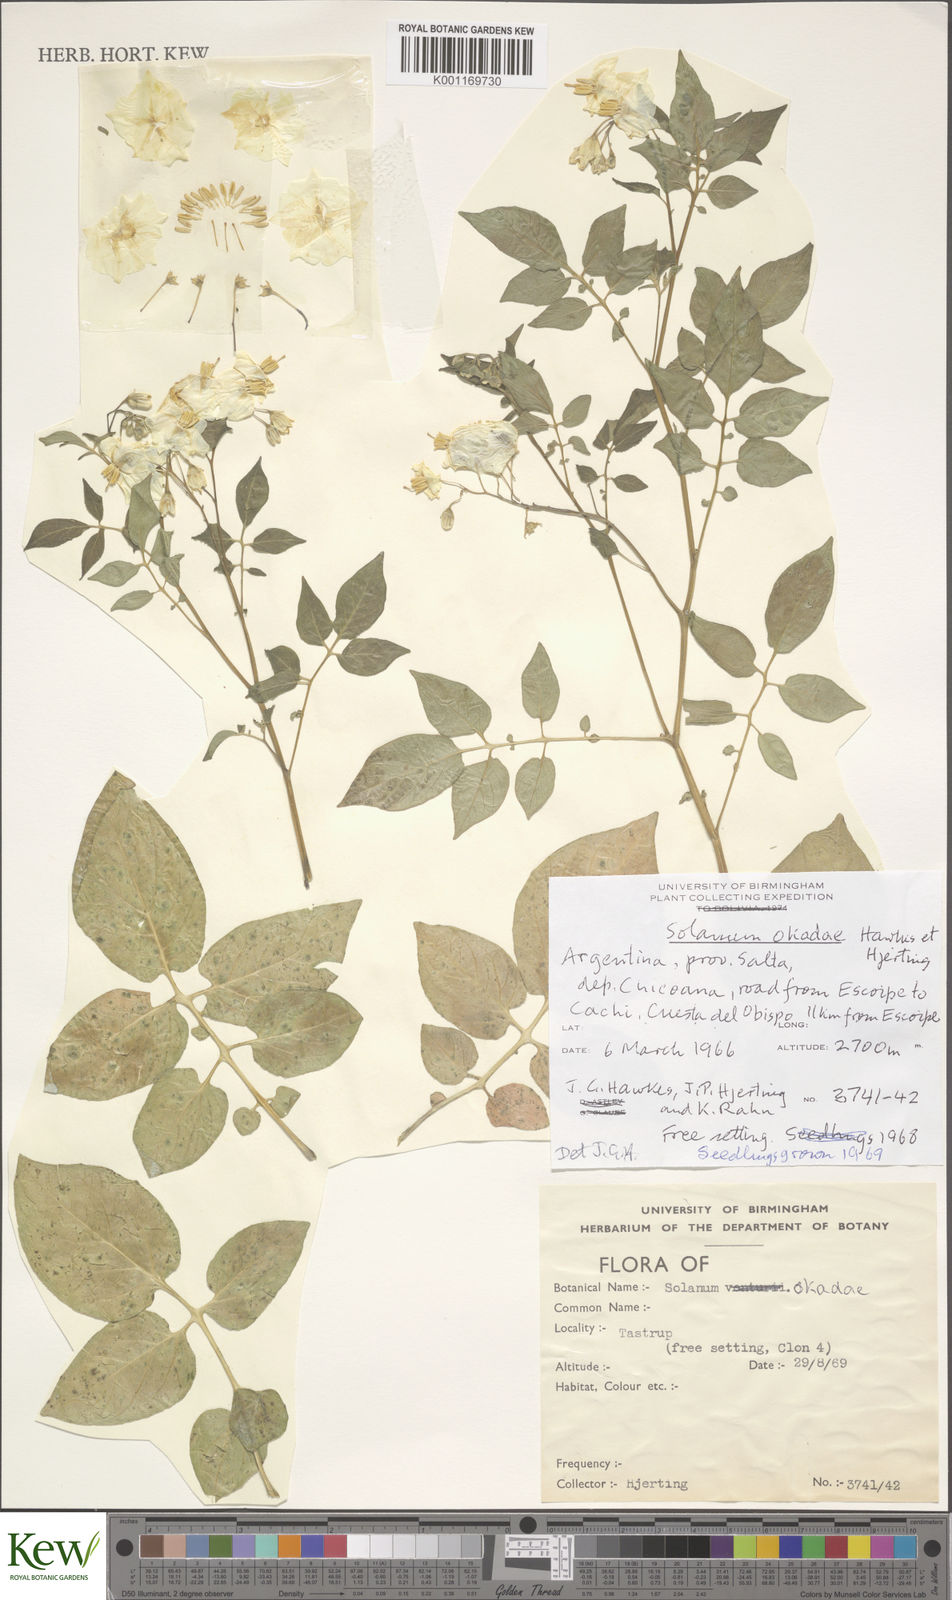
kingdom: Plantae
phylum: Tracheophyta
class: Magnoliopsida
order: Solanales
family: Solanaceae
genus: Solanum
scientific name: Solanum okadae
